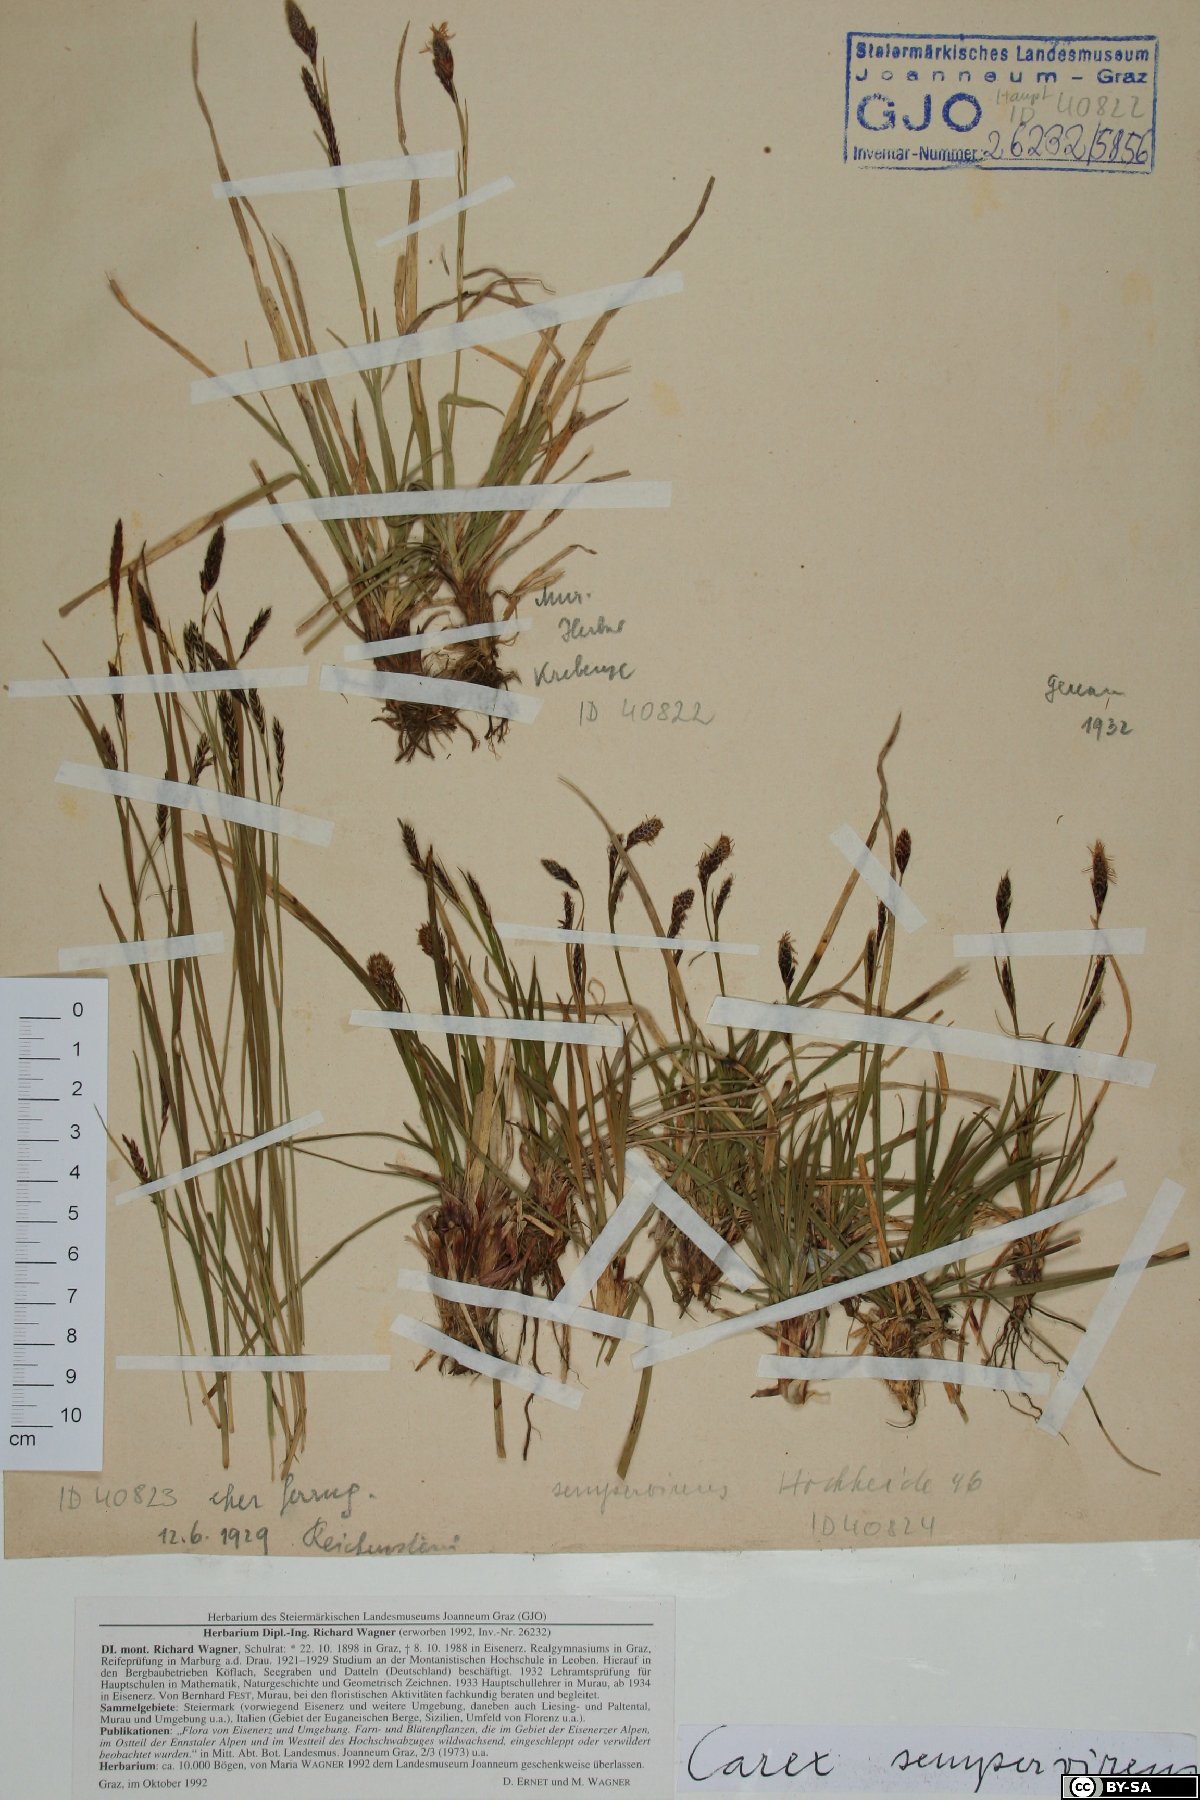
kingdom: Plantae
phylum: Tracheophyta
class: Liliopsida
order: Poales
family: Cyperaceae
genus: Carex
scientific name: Carex sempervirens
